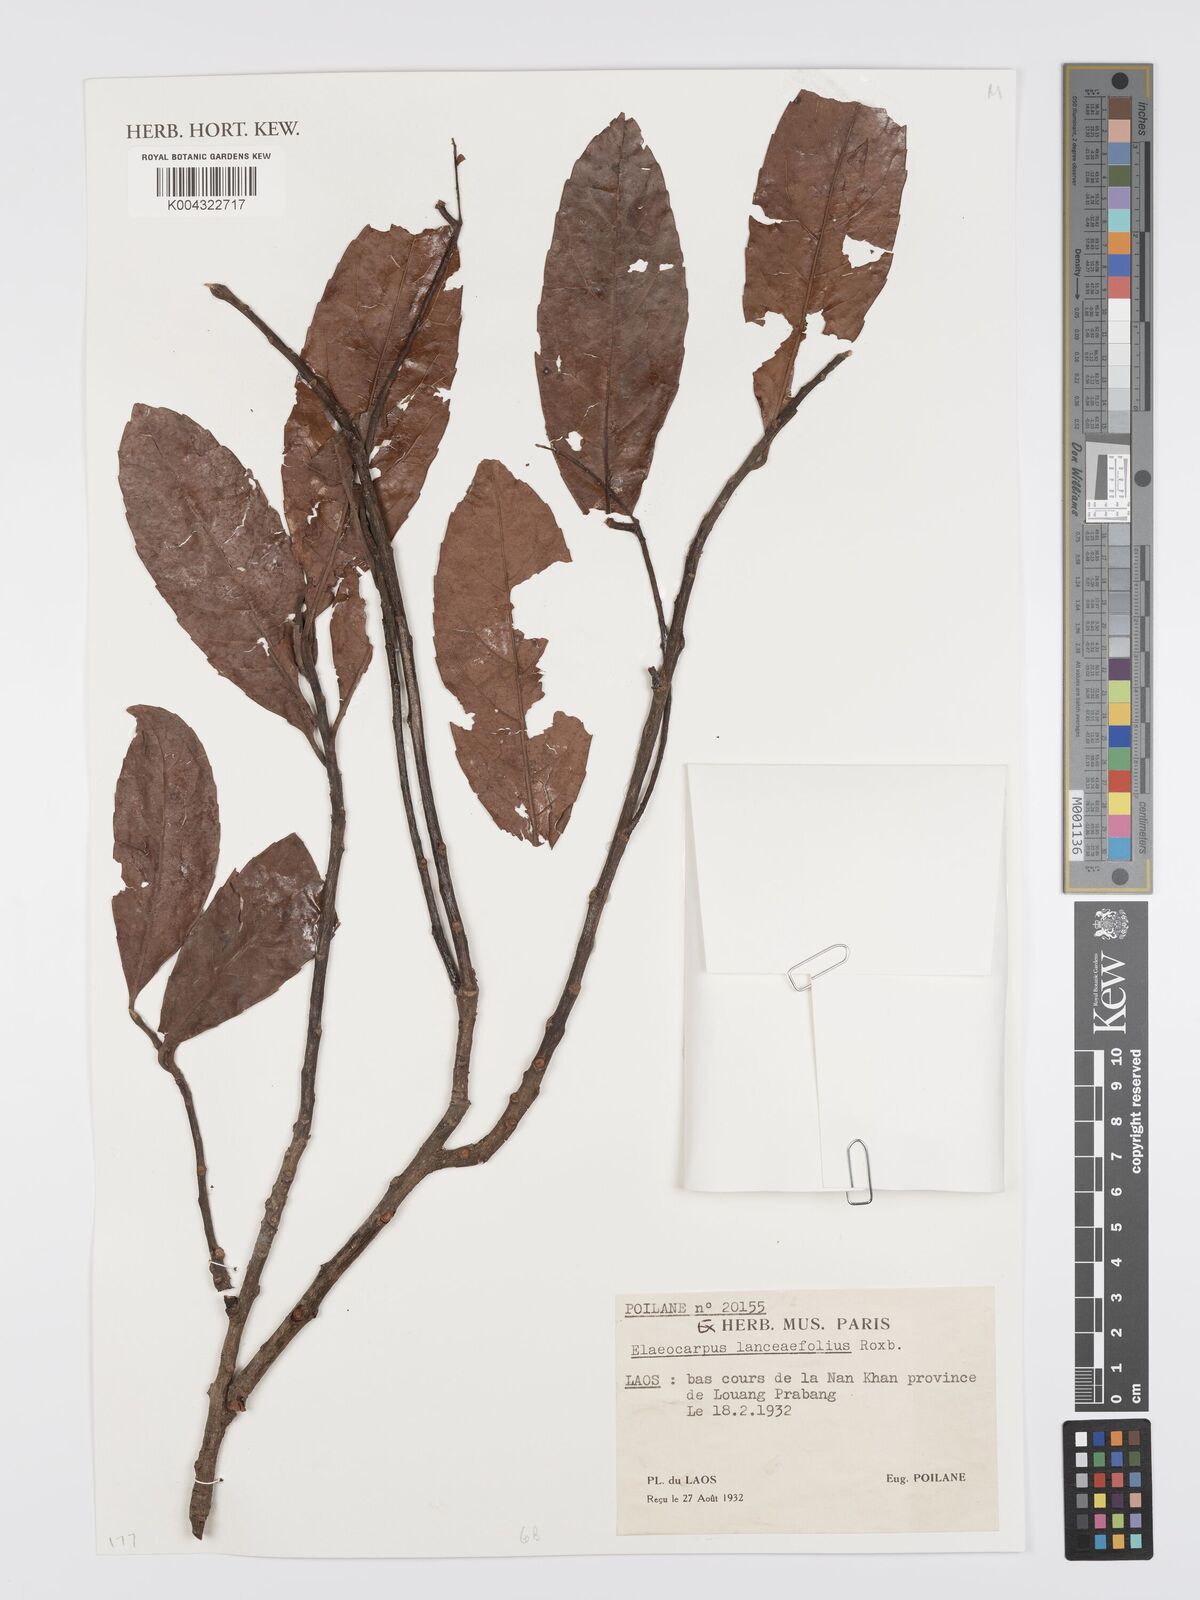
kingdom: Plantae
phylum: Tracheophyta
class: Magnoliopsida
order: Oxalidales
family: Elaeocarpaceae
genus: Elaeocarpus
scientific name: Elaeocarpus lanceifolius
